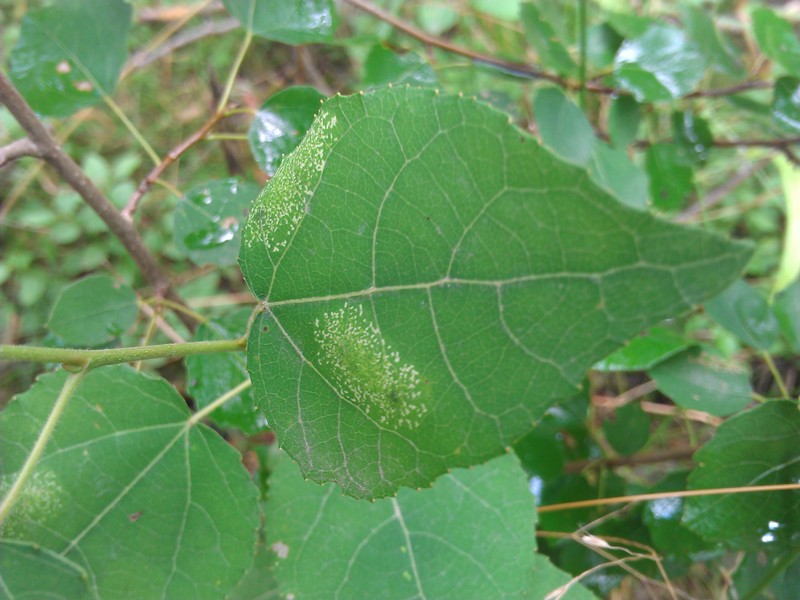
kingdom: Animalia
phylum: Arthropoda
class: Insecta
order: Lepidoptera
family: Gracillariidae
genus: Phyllonorycter
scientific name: Phyllonorycter sagitella
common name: Scarce aspen midget
